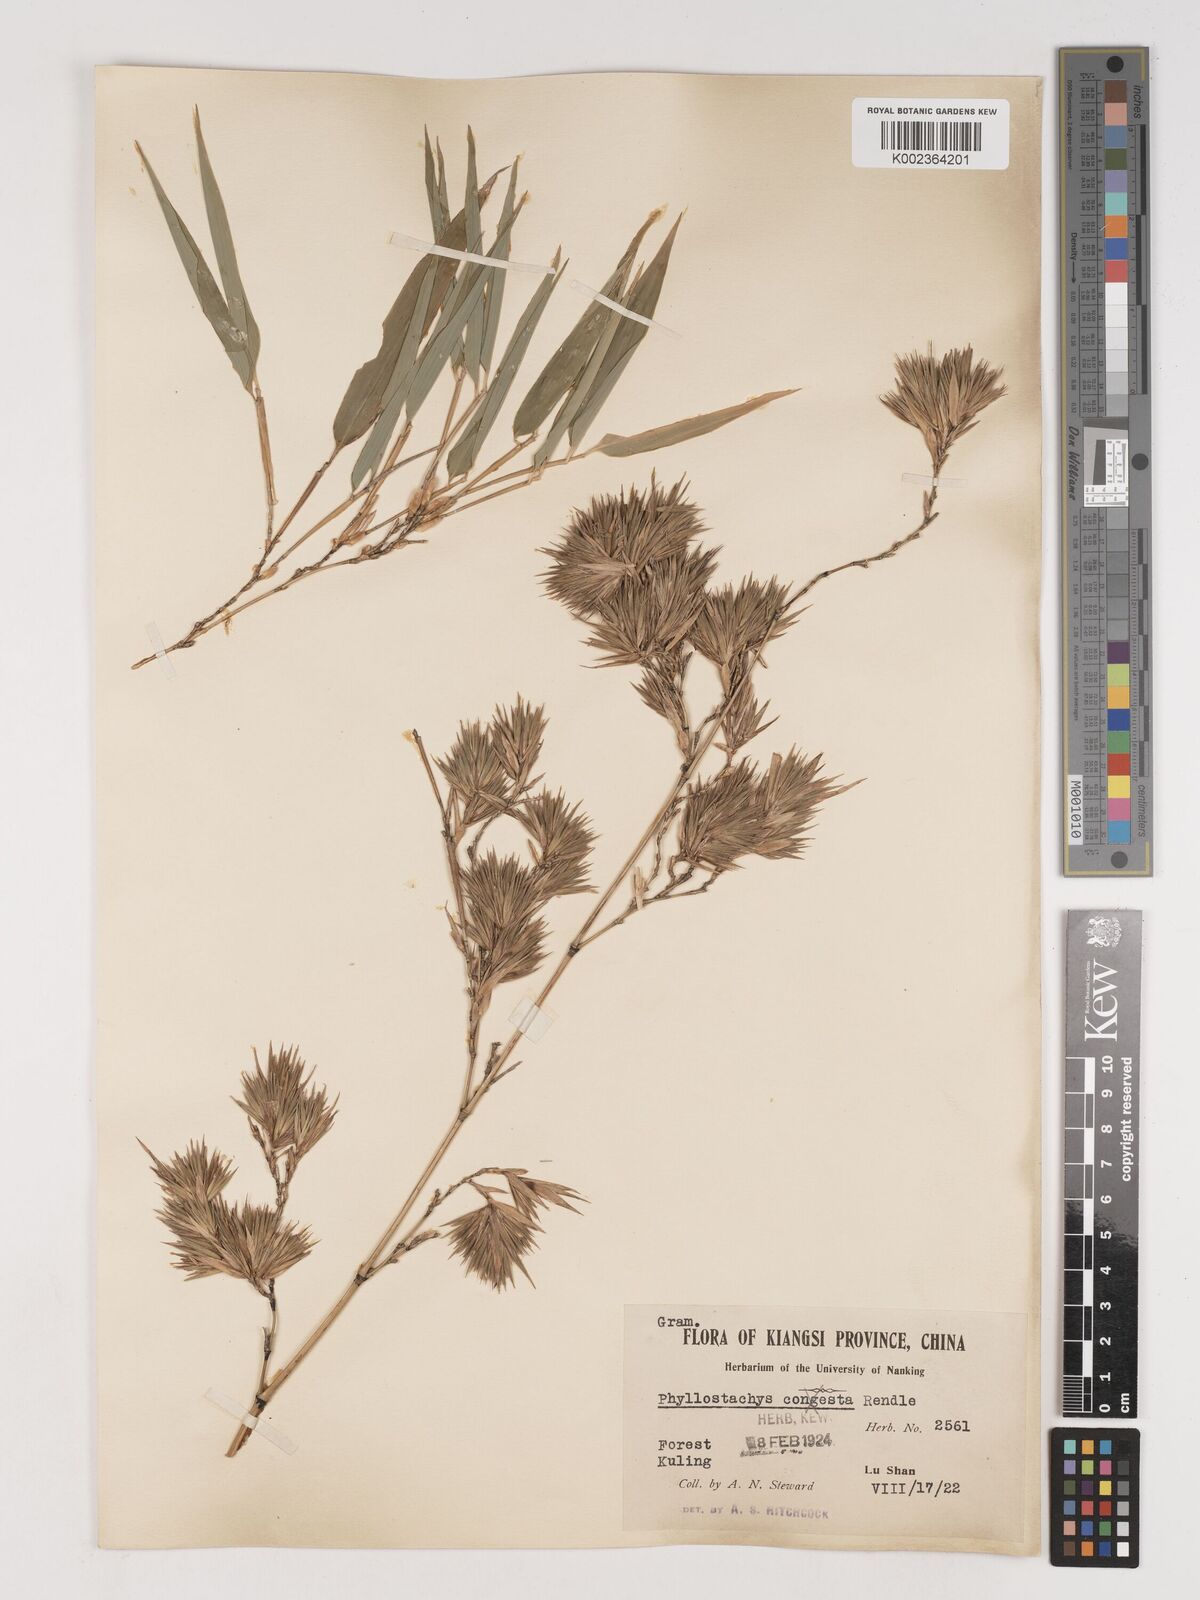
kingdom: Plantae
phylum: Tracheophyta
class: Liliopsida
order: Poales
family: Poaceae
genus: Phyllostachys
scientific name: Phyllostachys heteroclada
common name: Fishscale bamboo
